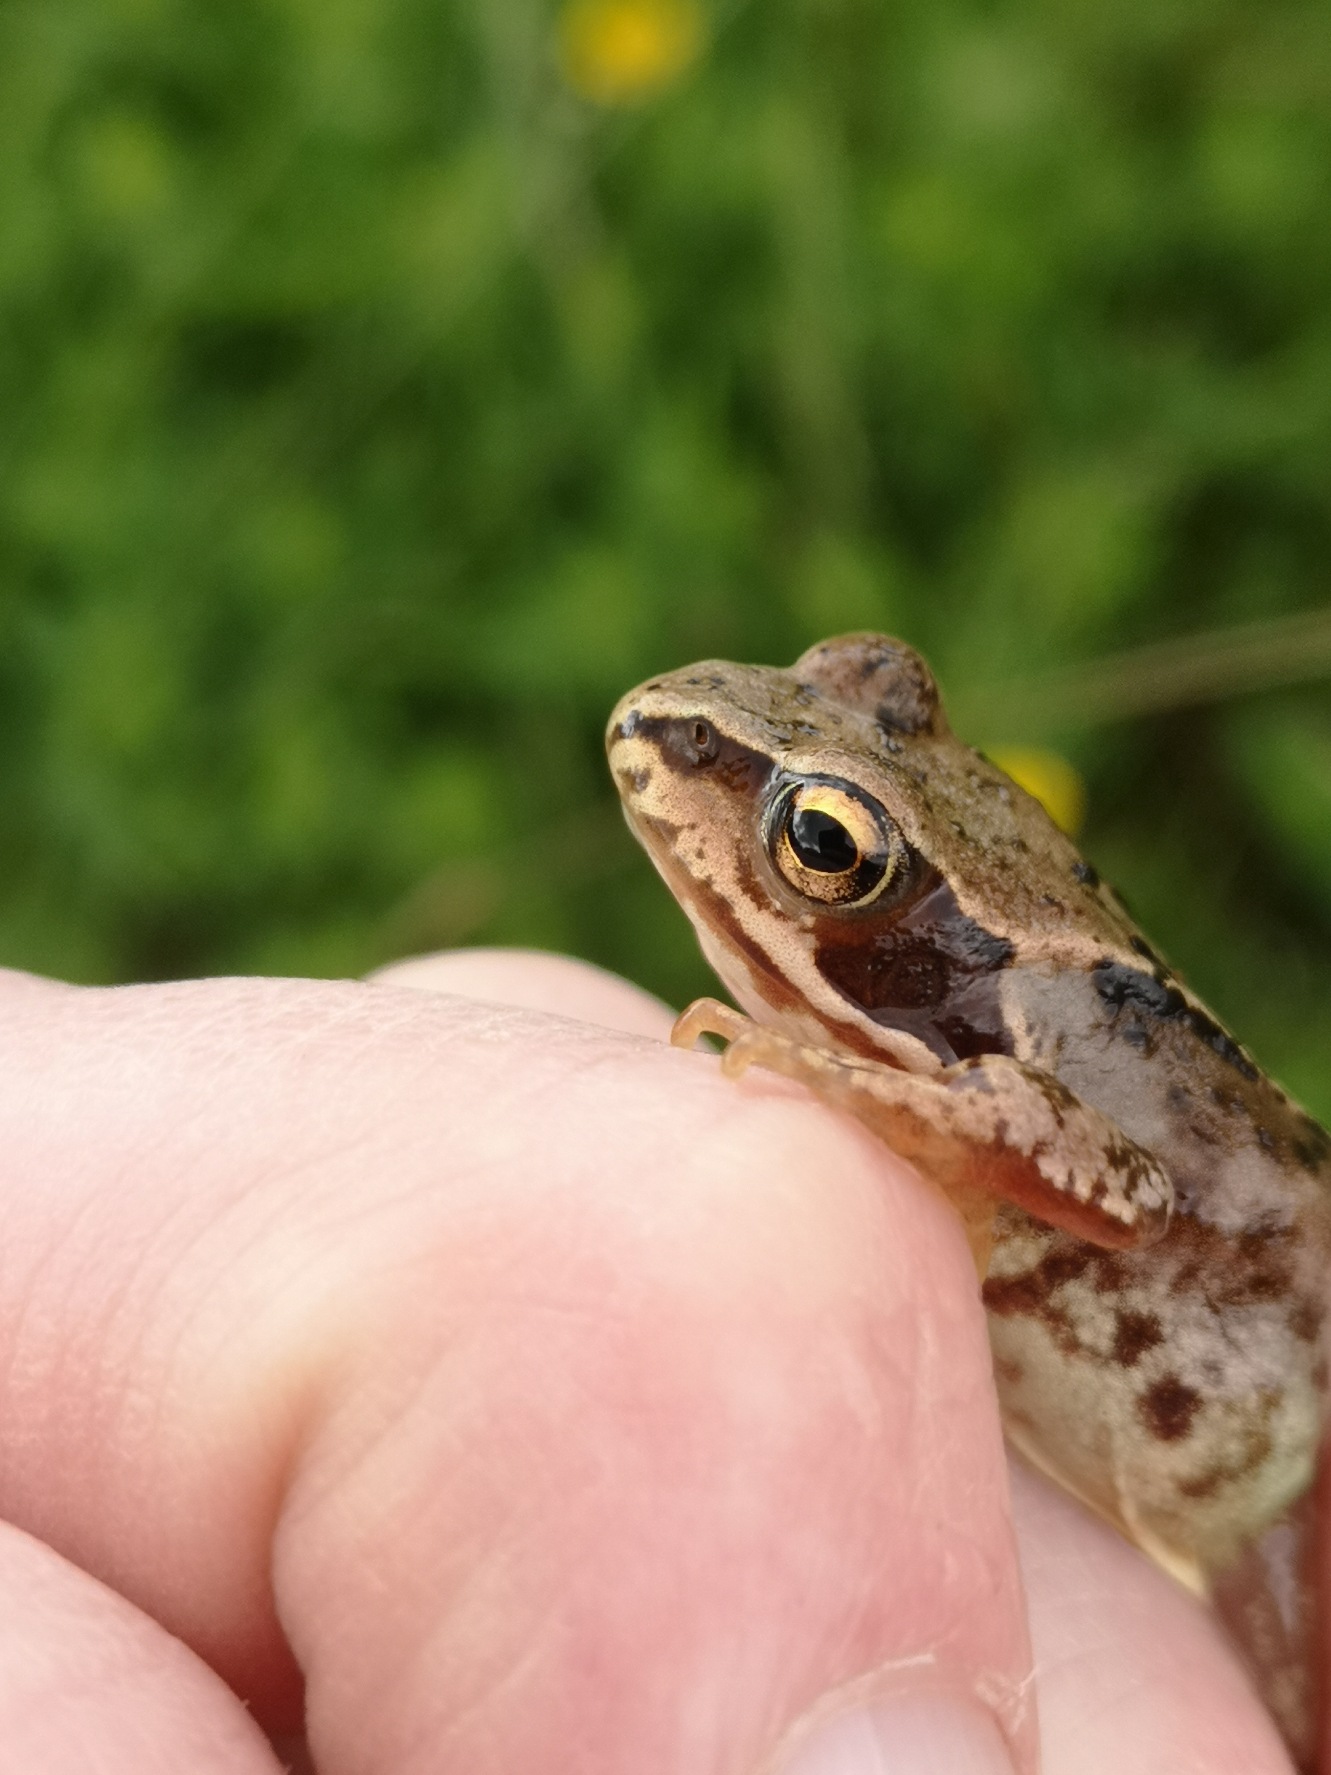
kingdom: Animalia
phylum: Chordata
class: Amphibia
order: Anura
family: Ranidae
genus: Rana
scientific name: Rana temporaria
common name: Butsnudet frø
